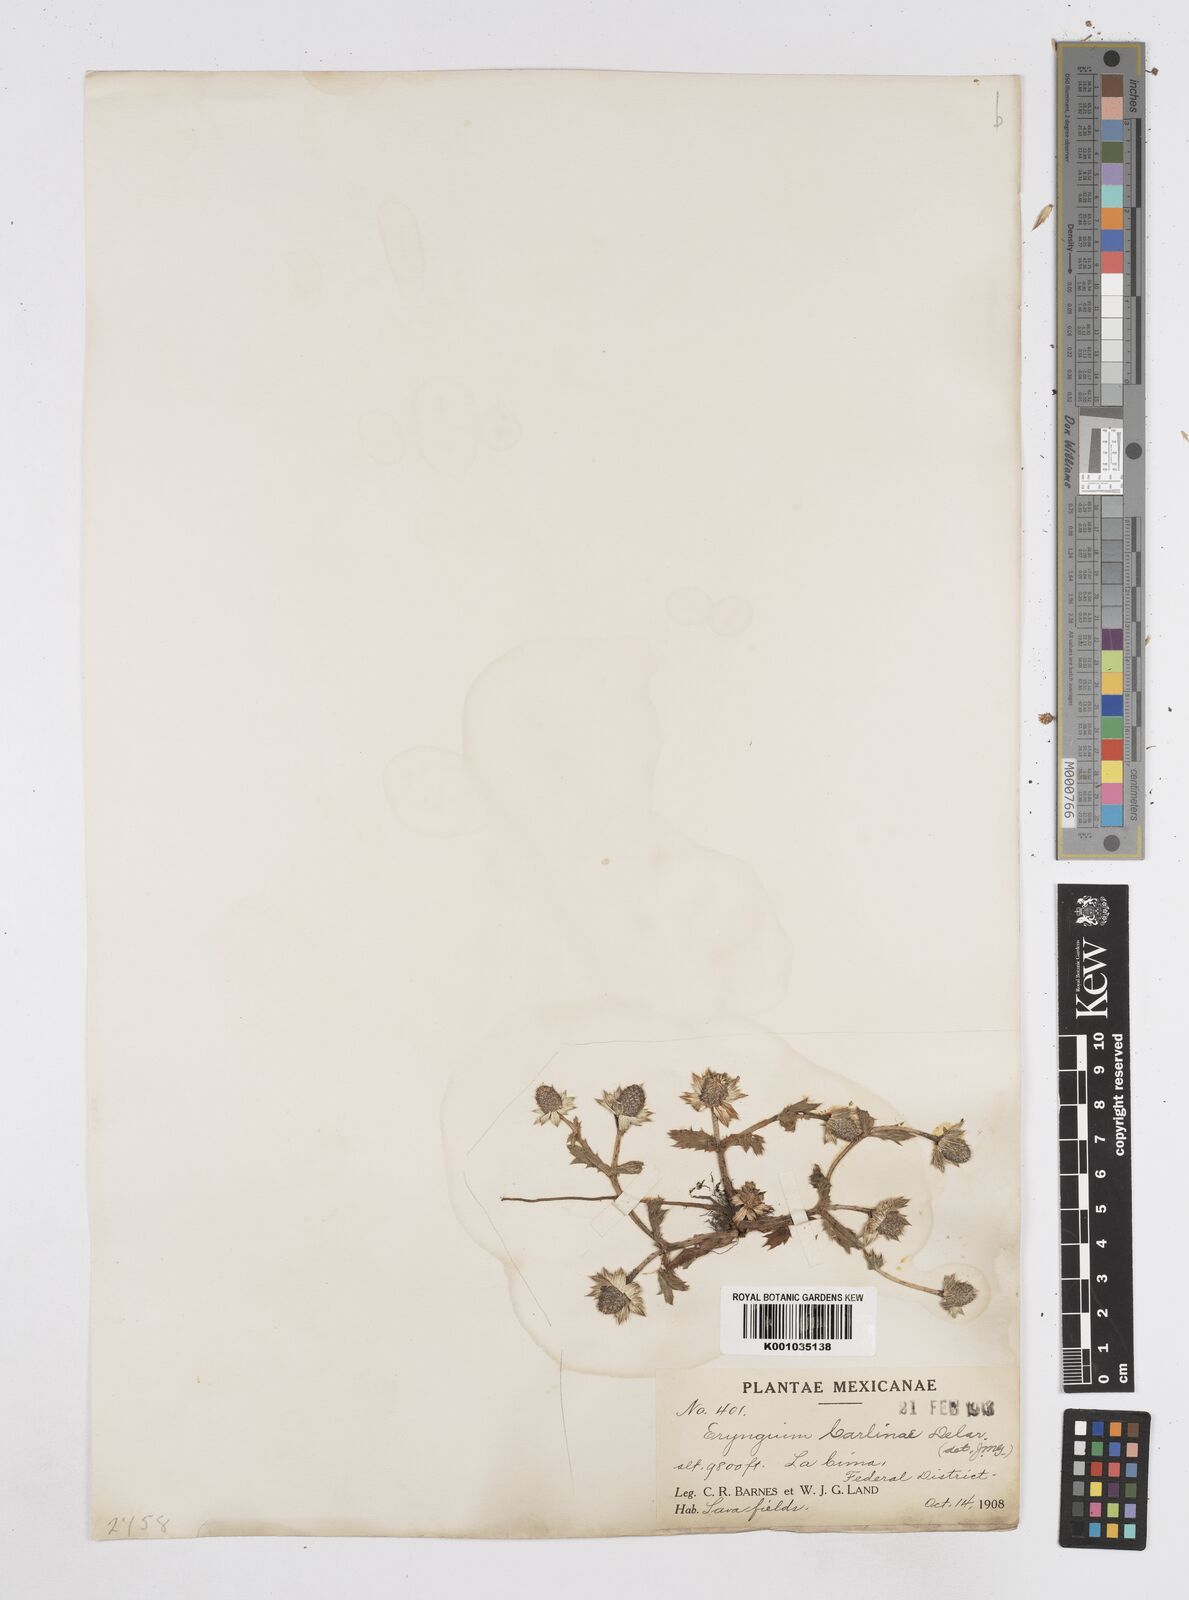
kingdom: Plantae
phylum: Tracheophyta
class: Magnoliopsida
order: Apiales
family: Apiaceae
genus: Eryngium
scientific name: Eryngium carlinae
